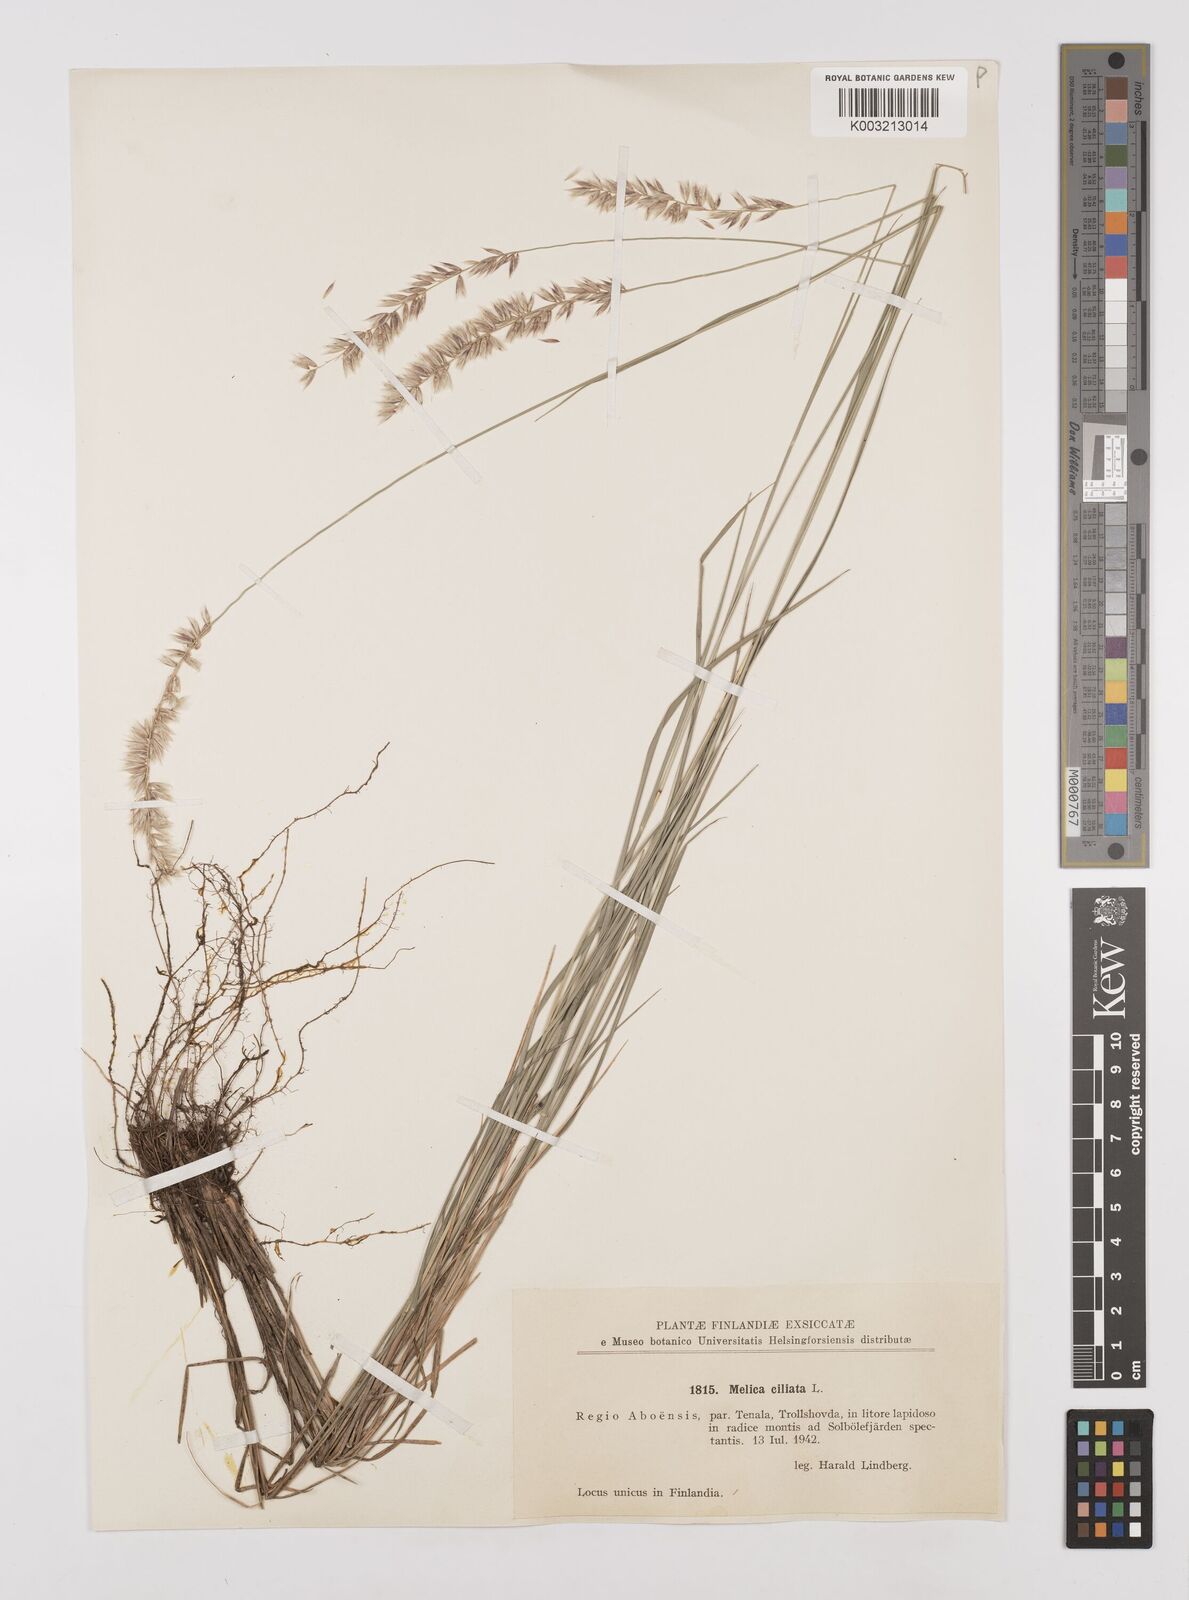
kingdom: Plantae
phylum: Tracheophyta
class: Liliopsida
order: Poales
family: Poaceae
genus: Melica
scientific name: Melica ciliata
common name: Hairy melicgrass
